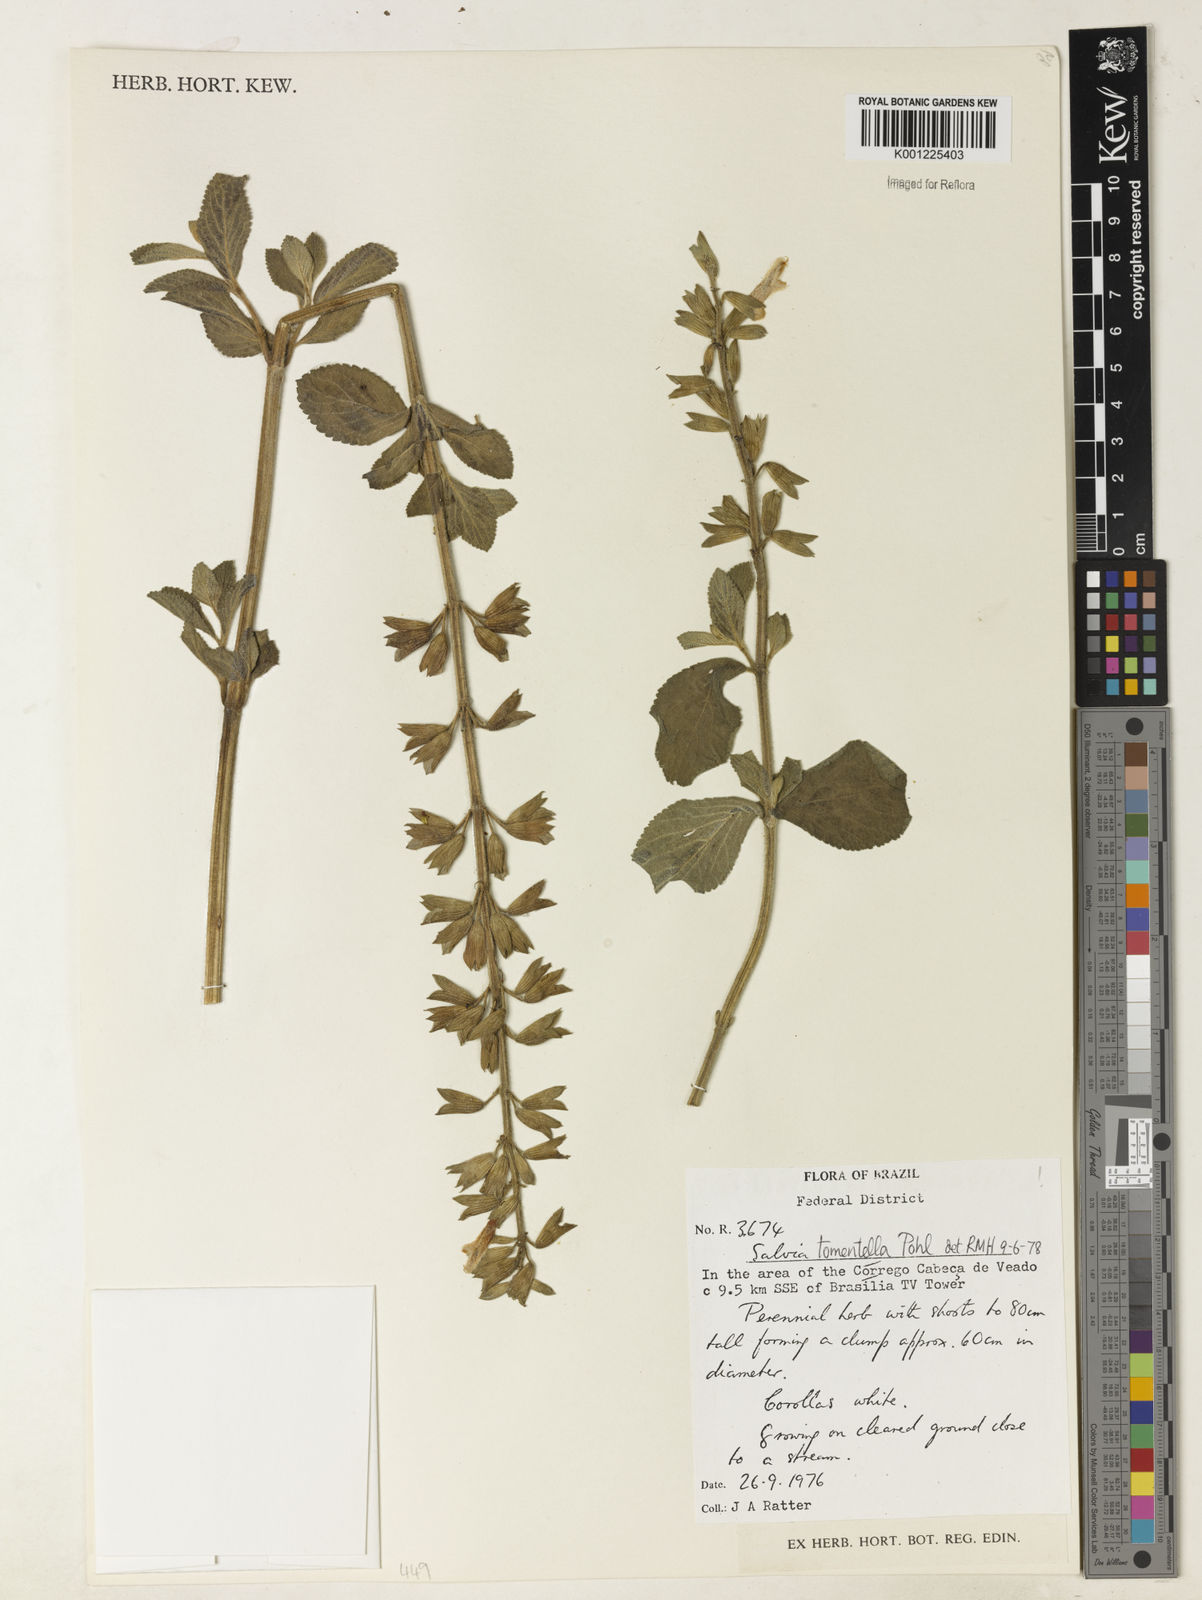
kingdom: Plantae
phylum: Tracheophyta
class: Magnoliopsida
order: Lamiales
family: Lamiaceae
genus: Salvia
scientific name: Salvia tomentella
